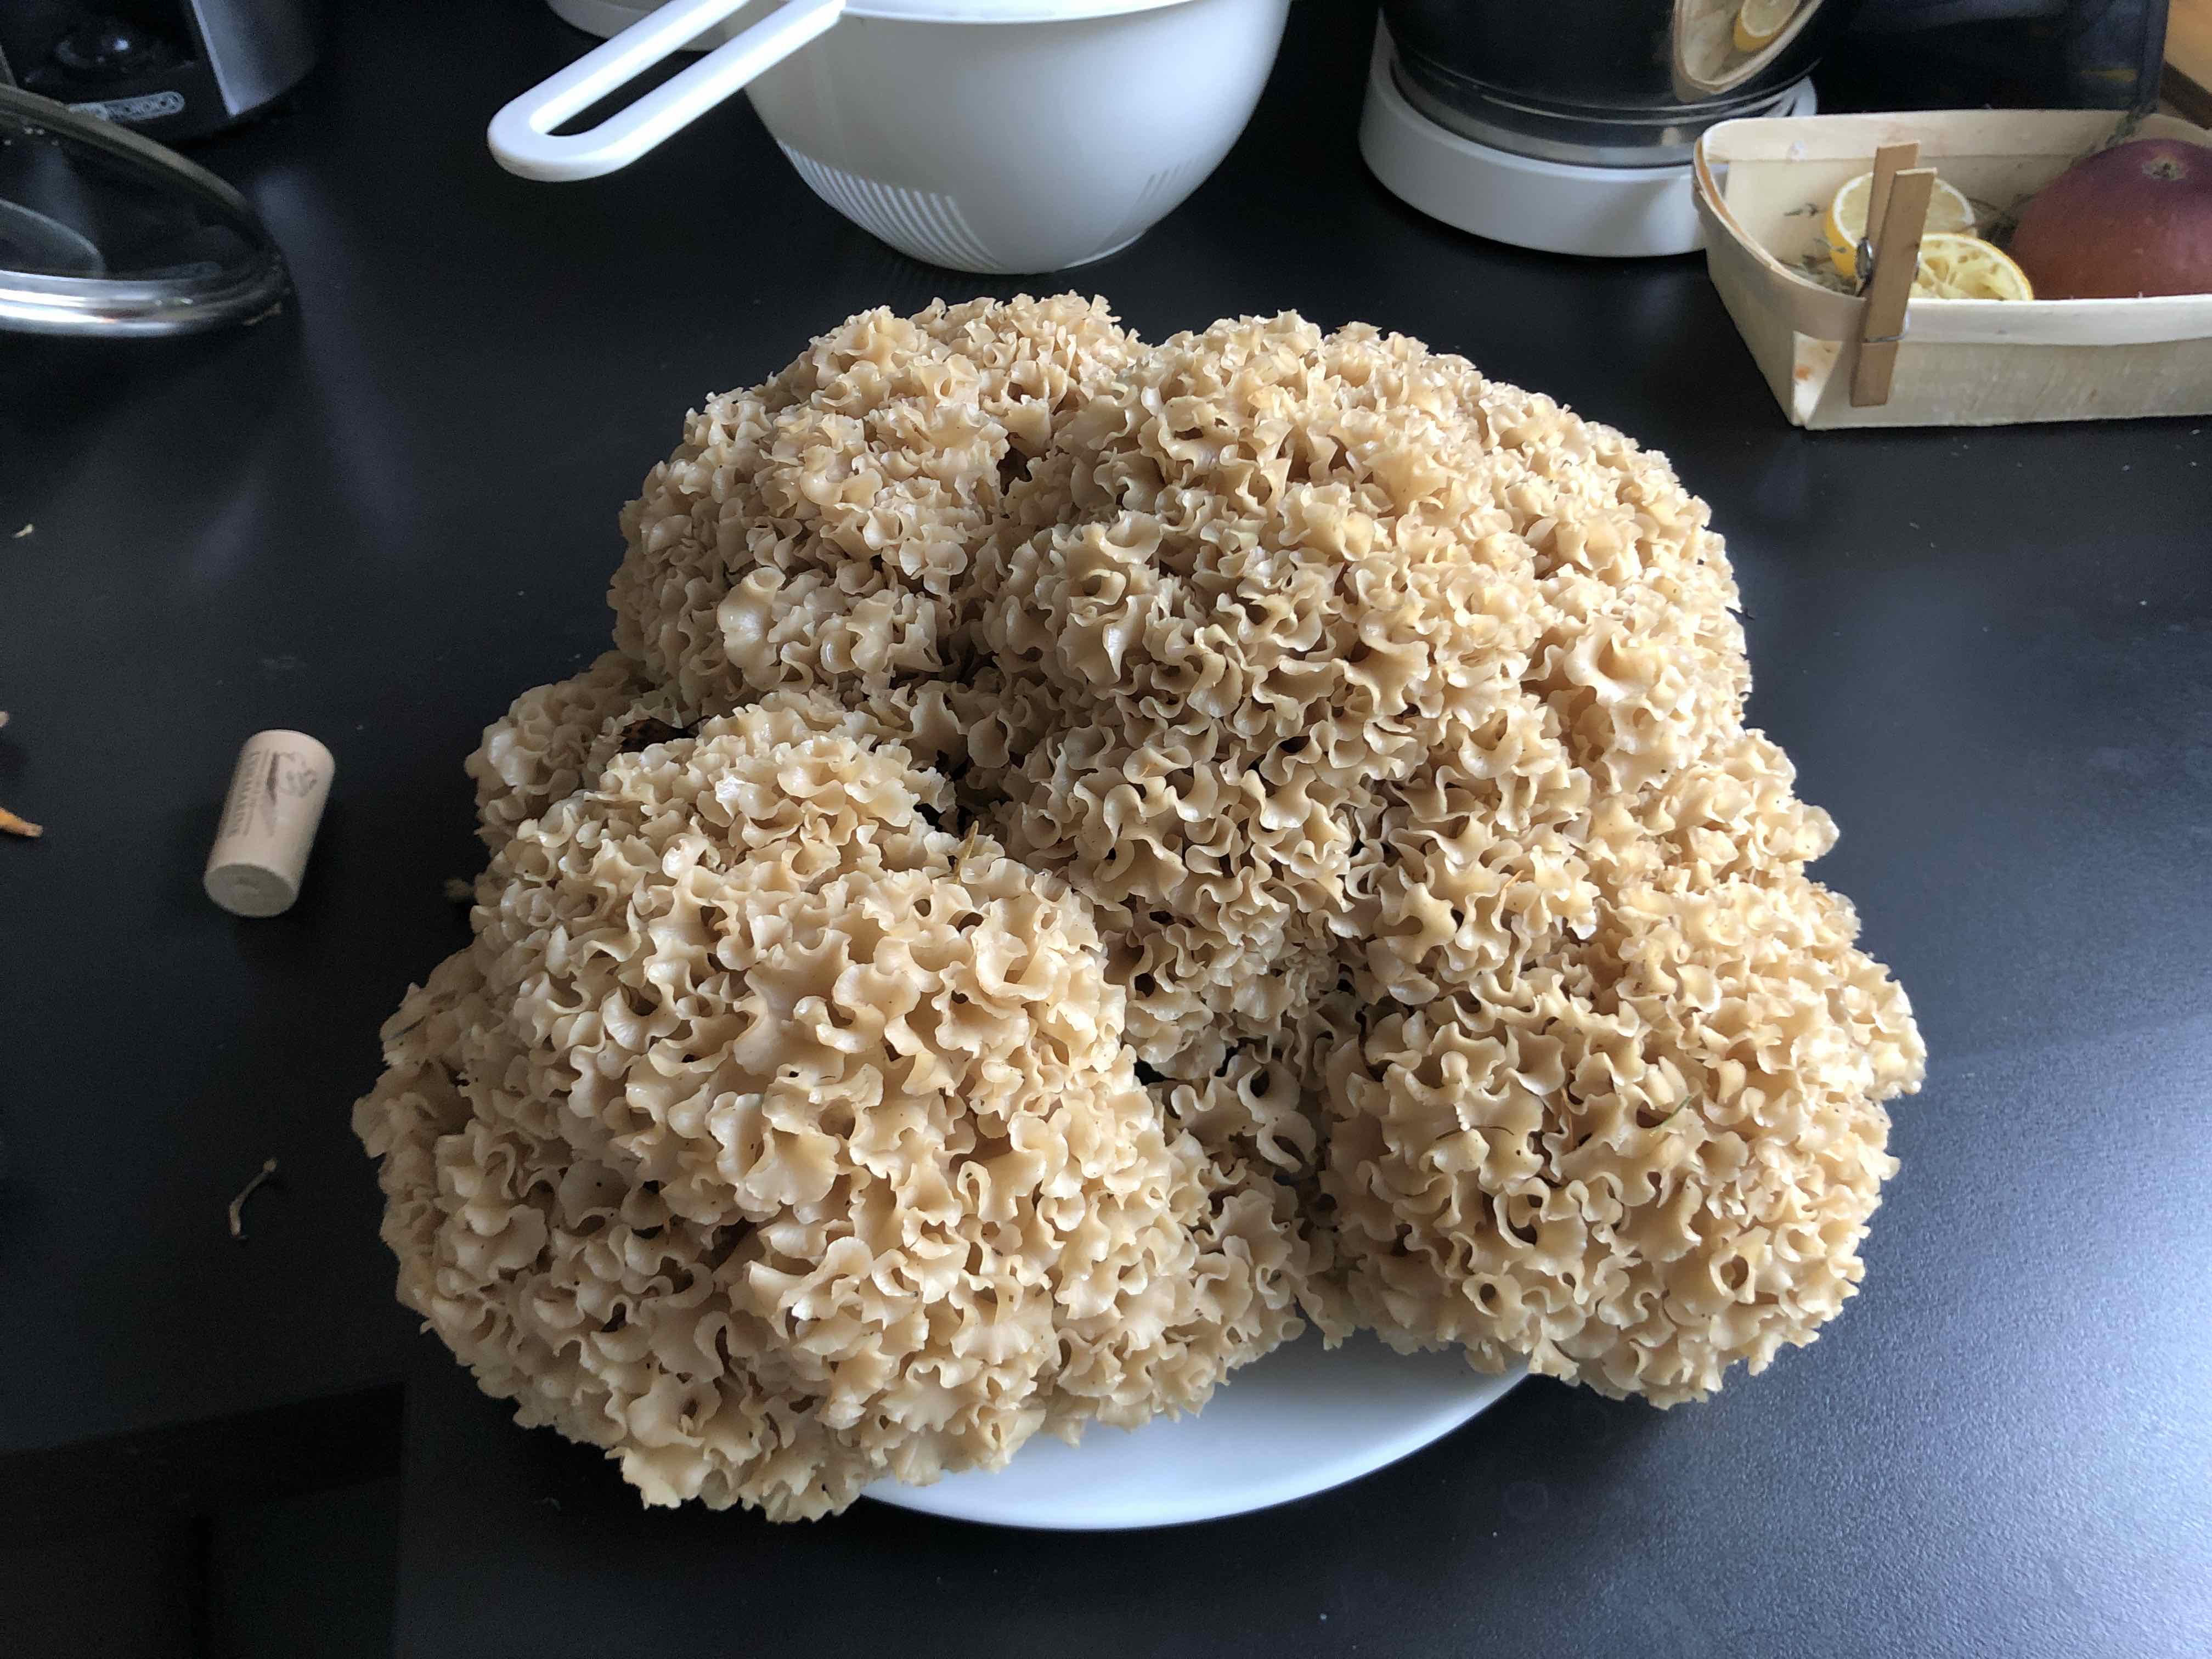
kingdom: Fungi
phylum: Basidiomycota
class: Agaricomycetes
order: Polyporales
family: Sparassidaceae
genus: Sparassis
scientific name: Sparassis crispa
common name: kruset blomkålssvamp
